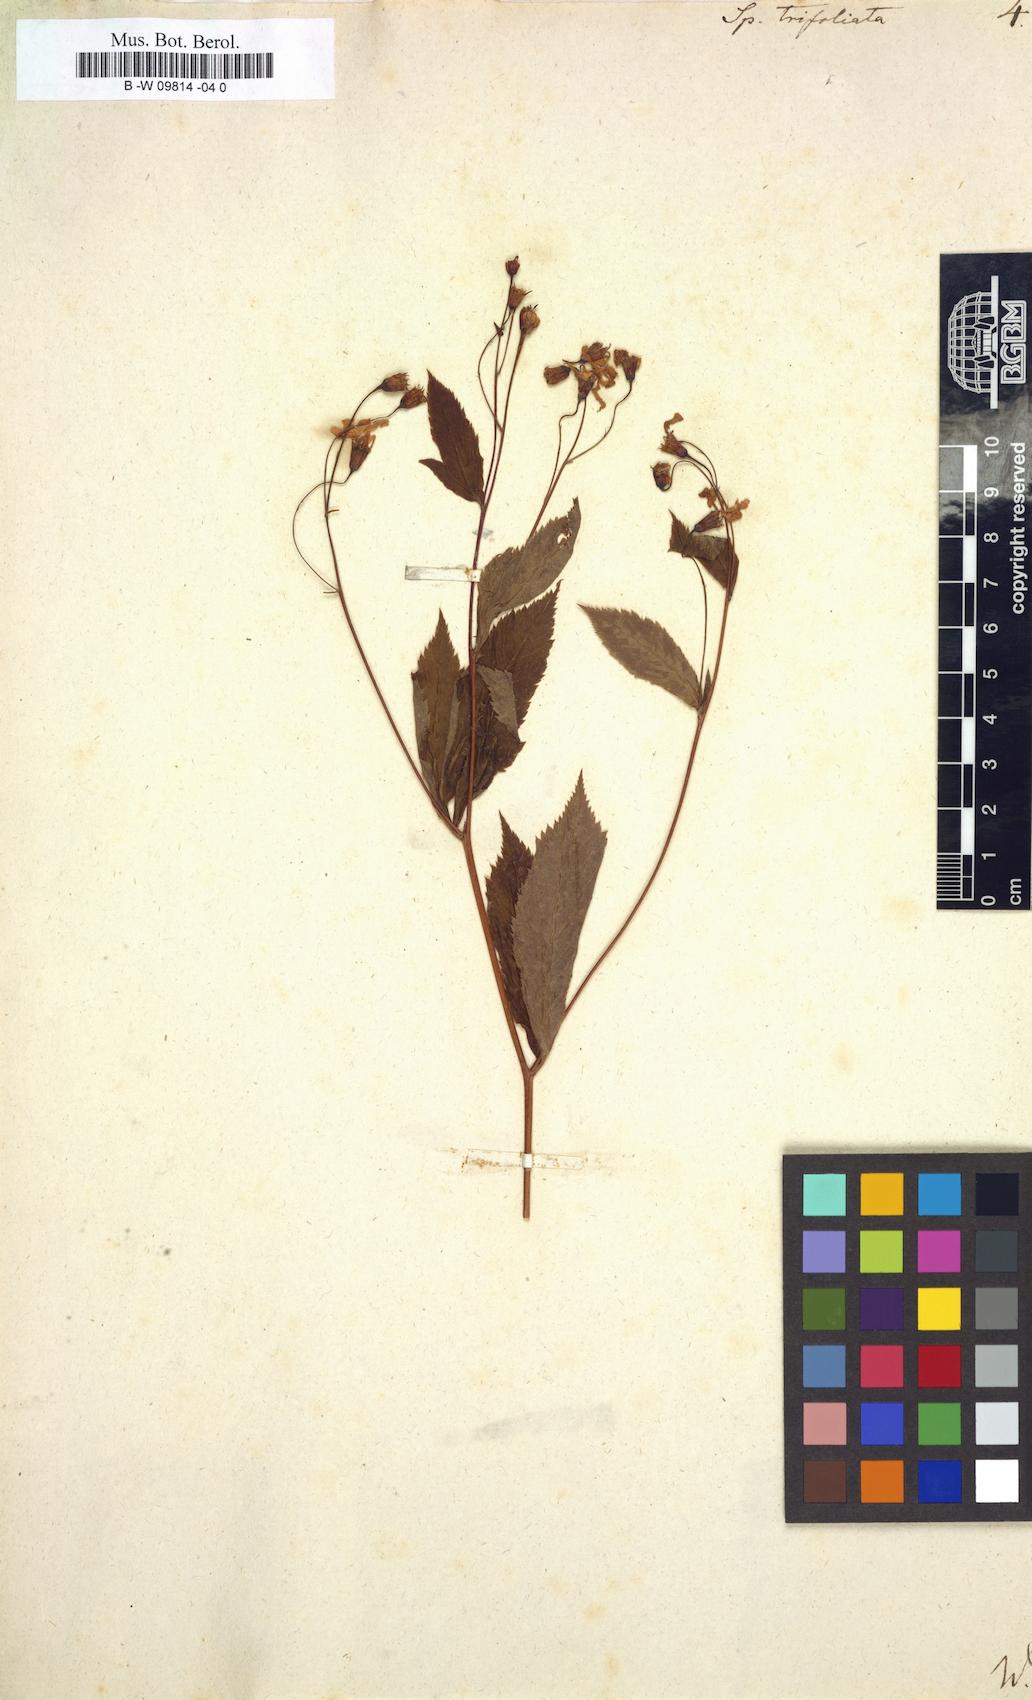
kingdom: Plantae
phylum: Tracheophyta
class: Magnoliopsida
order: Rosales
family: Rosaceae
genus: Gillenia
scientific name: Gillenia trifoliata
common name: Bowman's-root
